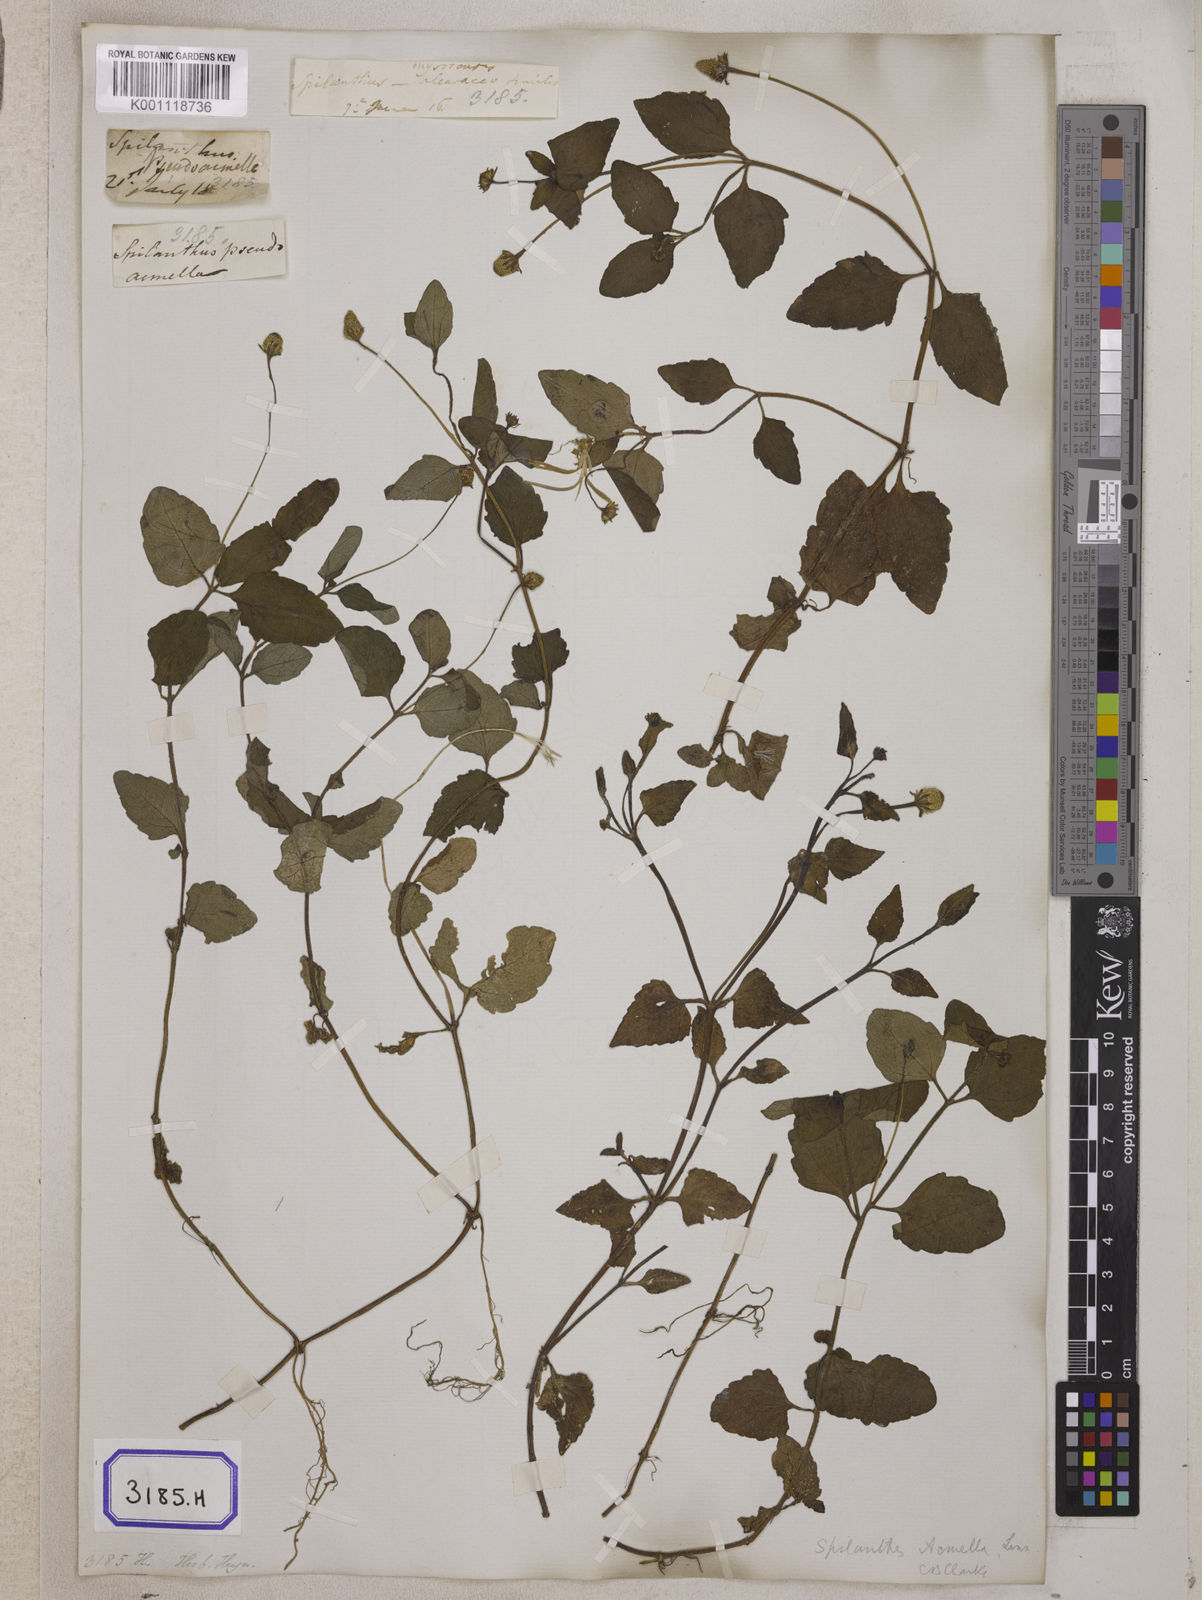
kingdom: Plantae
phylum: Tracheophyta
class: Magnoliopsida
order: Asterales
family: Asteraceae
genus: Blainvillea
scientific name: Blainvillea acmella
